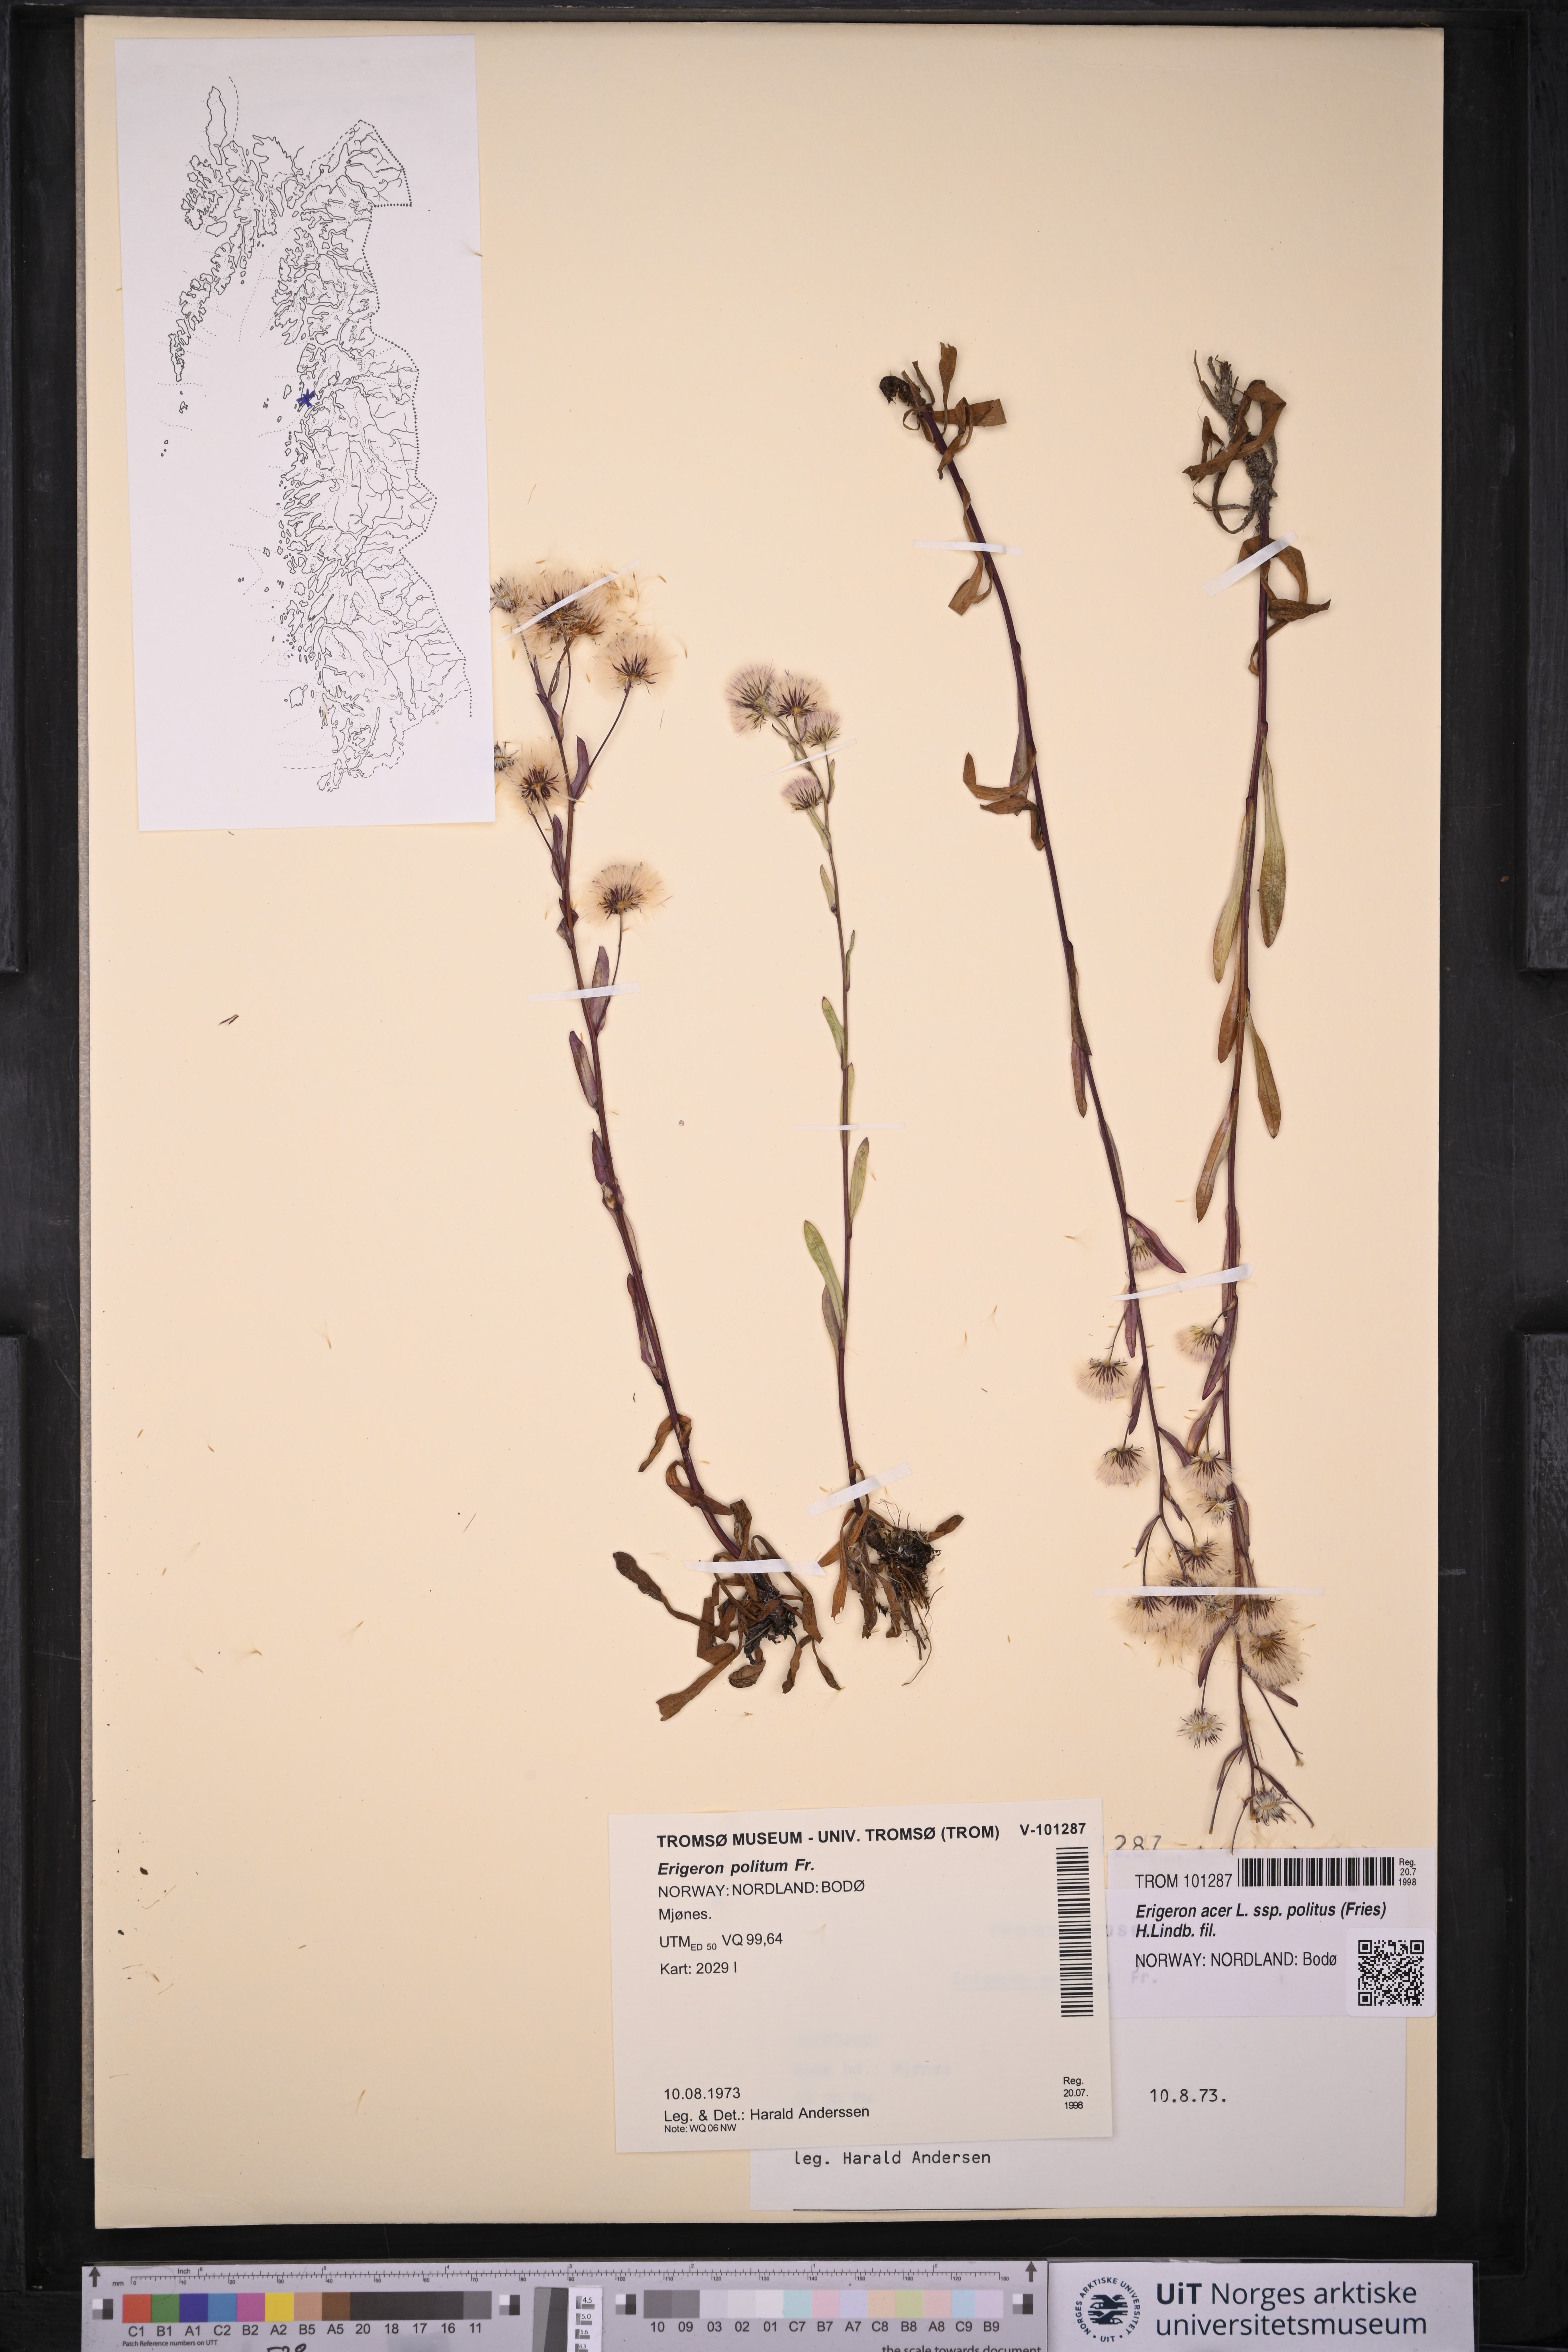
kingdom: Plantae
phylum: Tracheophyta
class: Magnoliopsida
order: Asterales
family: Asteraceae
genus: Erigeron
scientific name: Erigeron politus
